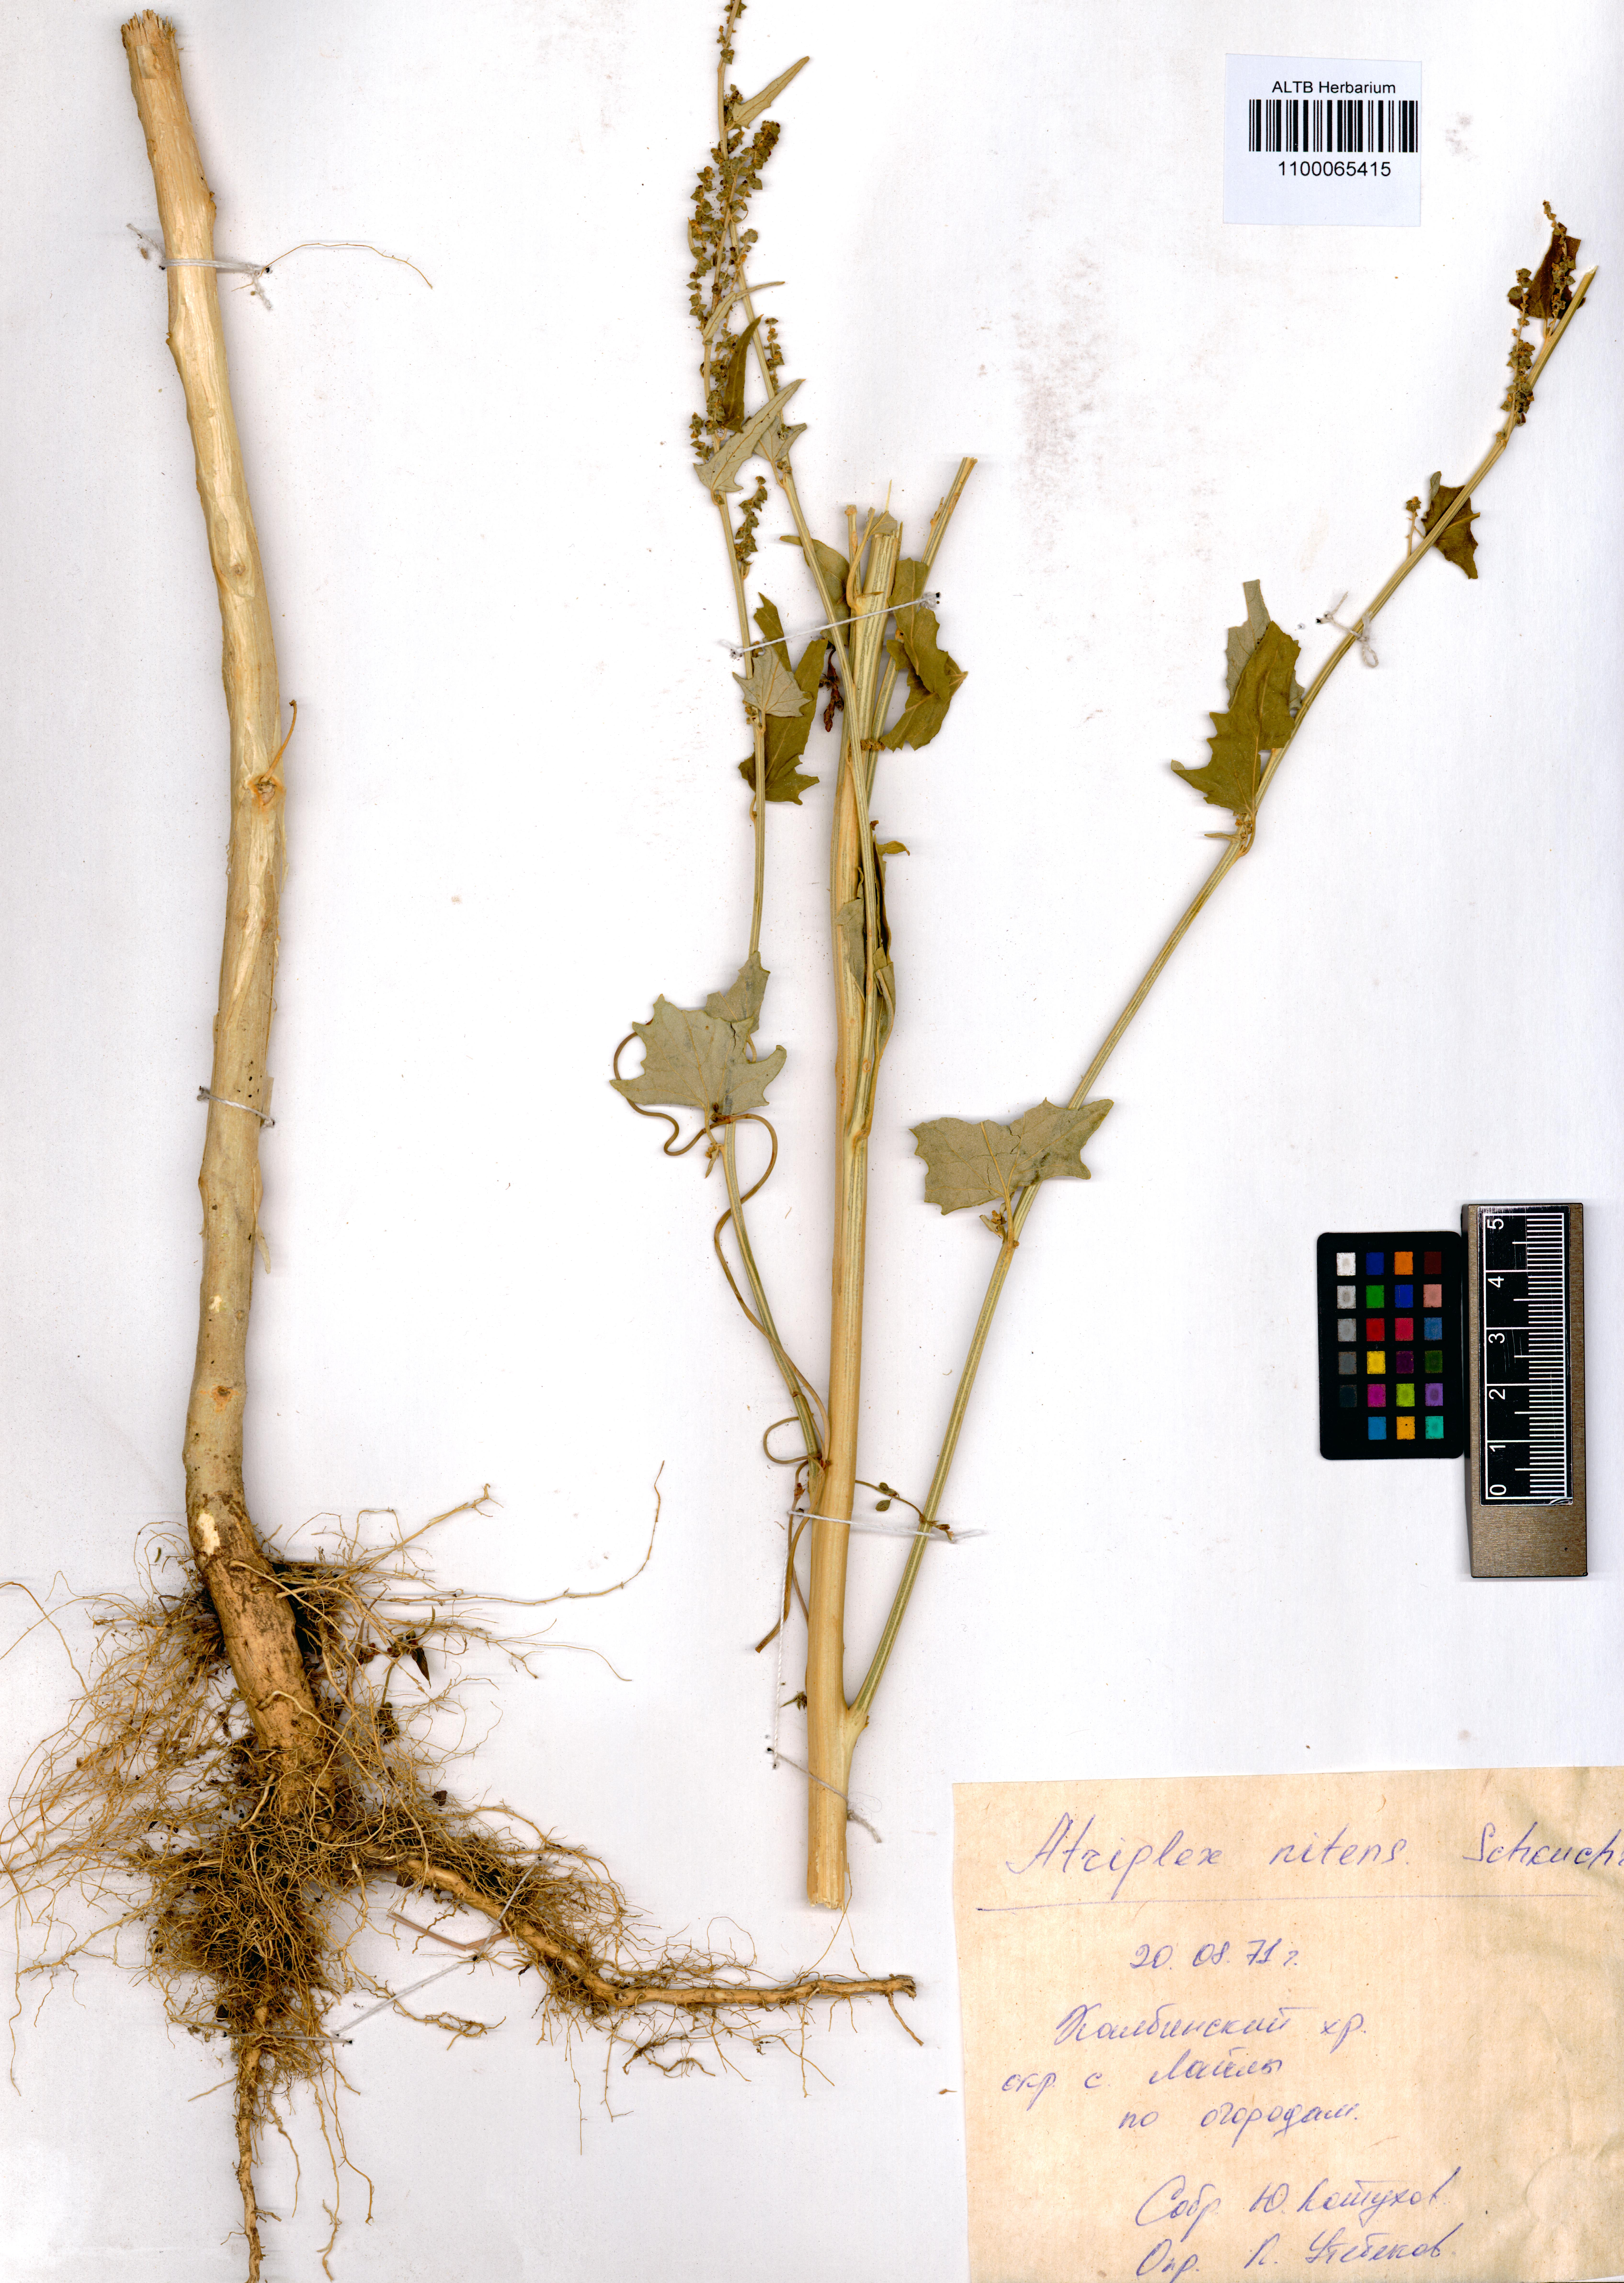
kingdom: Plantae
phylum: Tracheophyta
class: Magnoliopsida
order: Caryophyllales
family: Amaranthaceae
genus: Atriplex
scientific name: Atriplex sagittata
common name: Purple orache
